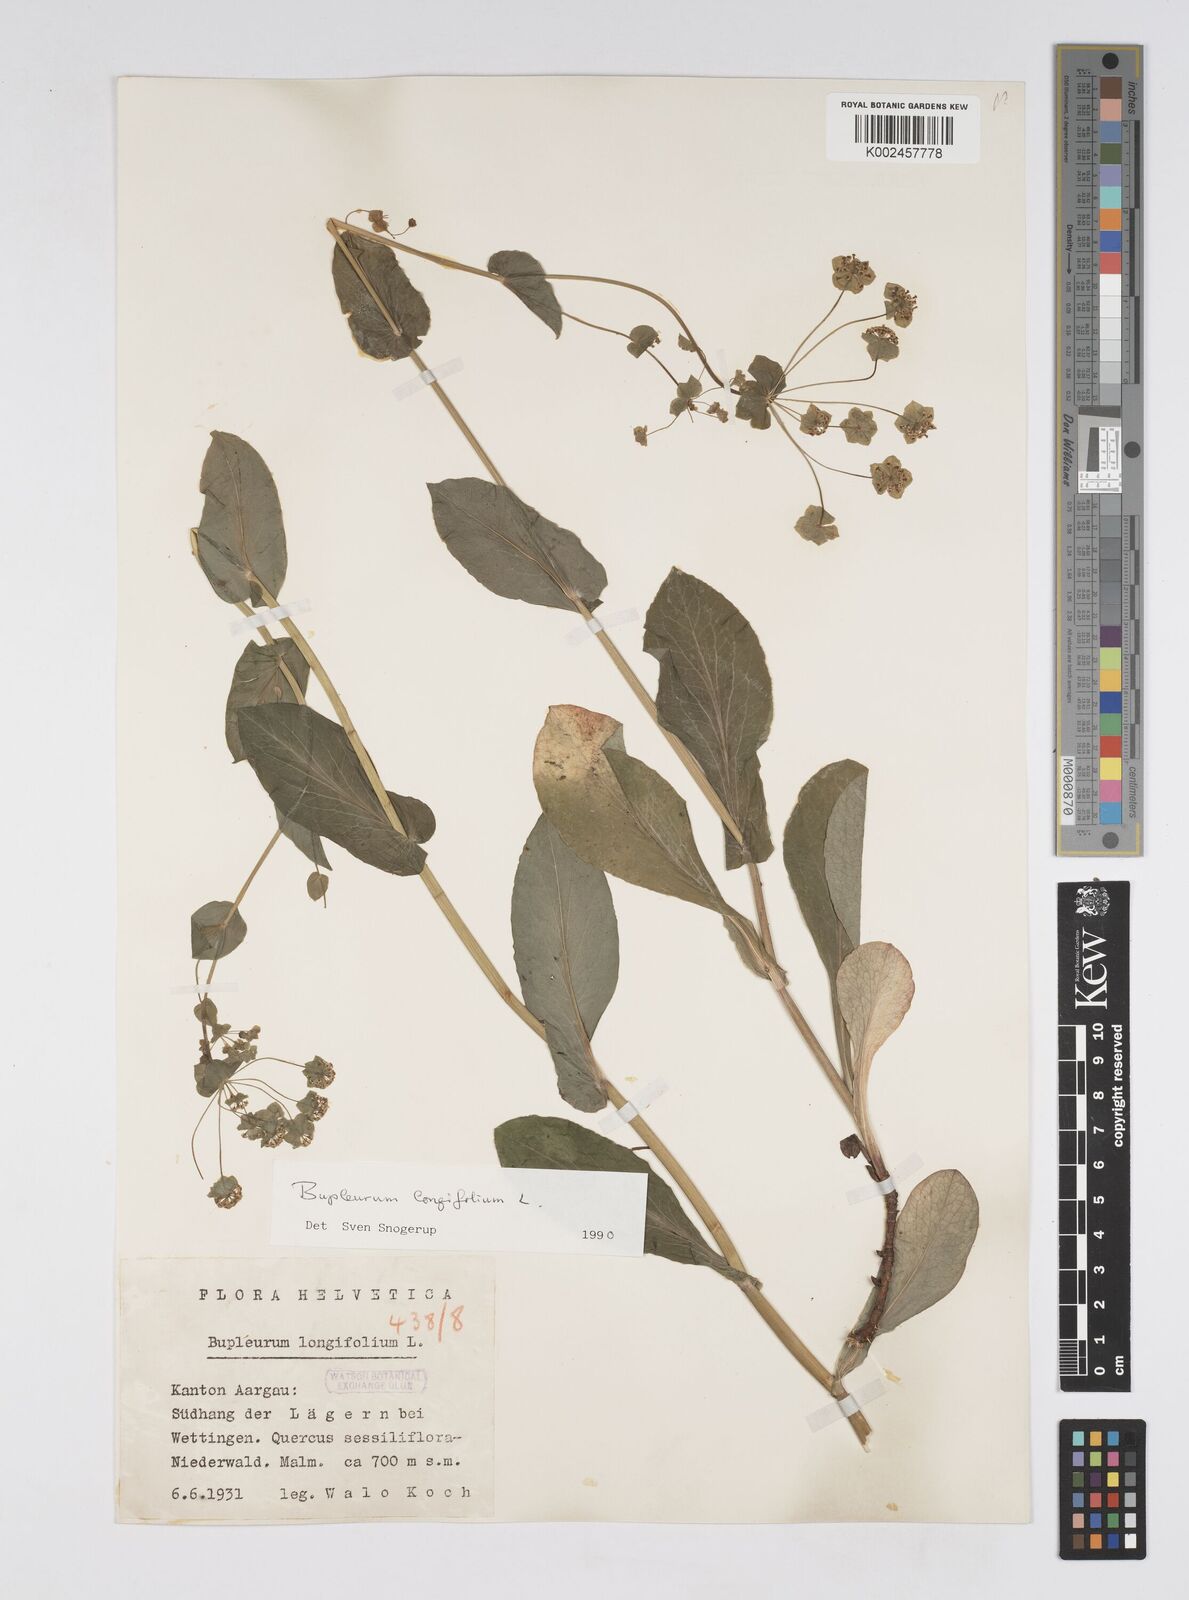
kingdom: Plantae
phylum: Tracheophyta
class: Magnoliopsida
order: Apiales
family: Apiaceae
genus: Bupleurum
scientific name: Bupleurum longifolium
